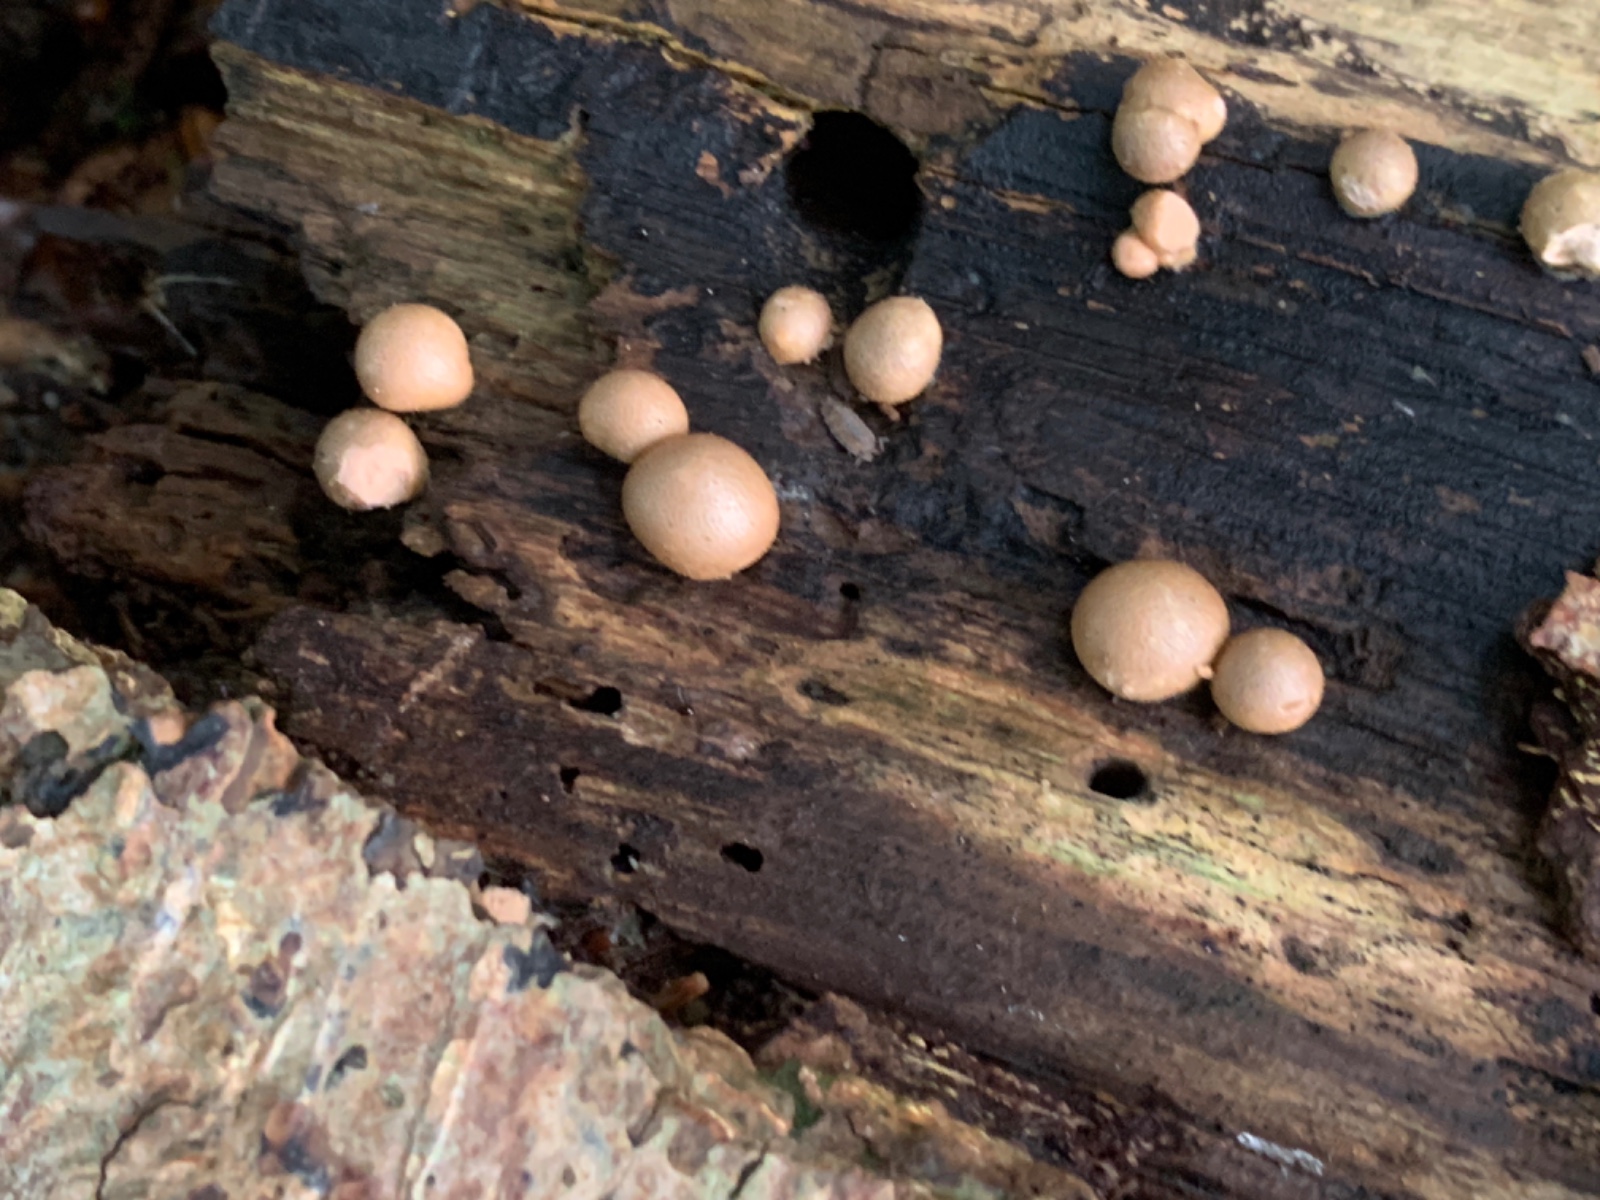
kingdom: Protozoa
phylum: Mycetozoa
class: Myxomycetes
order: Cribrariales
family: Tubiferaceae
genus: Lycogala
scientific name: Lycogala epidendrum
